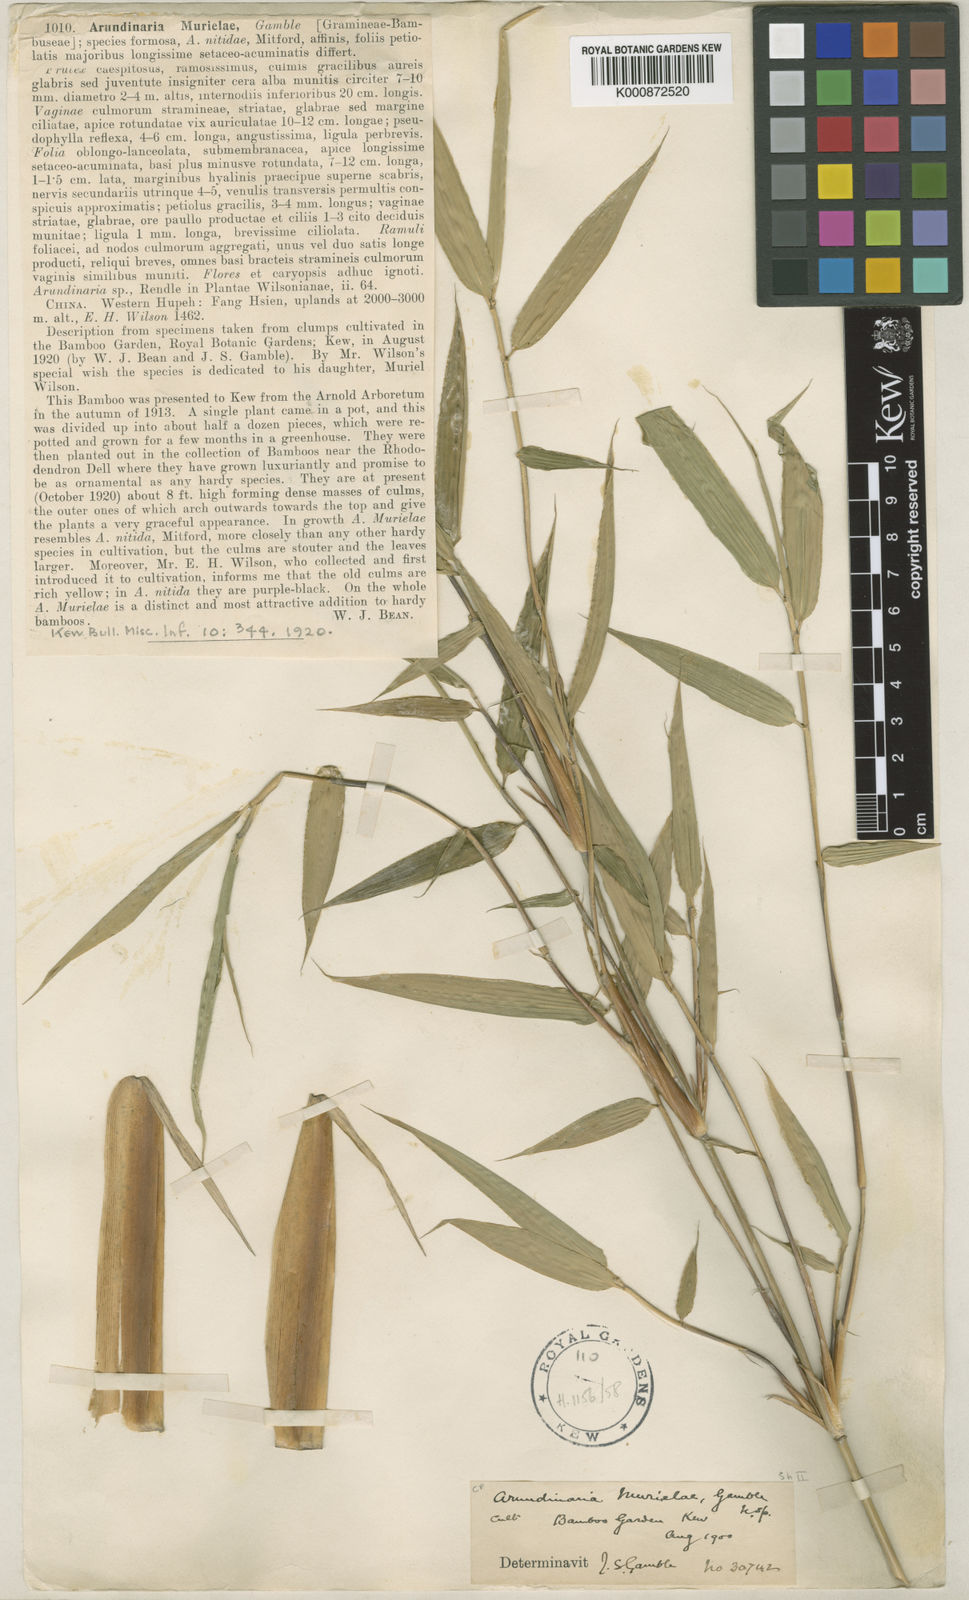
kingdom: Plantae
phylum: Tracheophyta
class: Liliopsida
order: Poales
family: Poaceae
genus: Fargesia
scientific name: Fargesia murielae
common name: Umbrella bamboo
